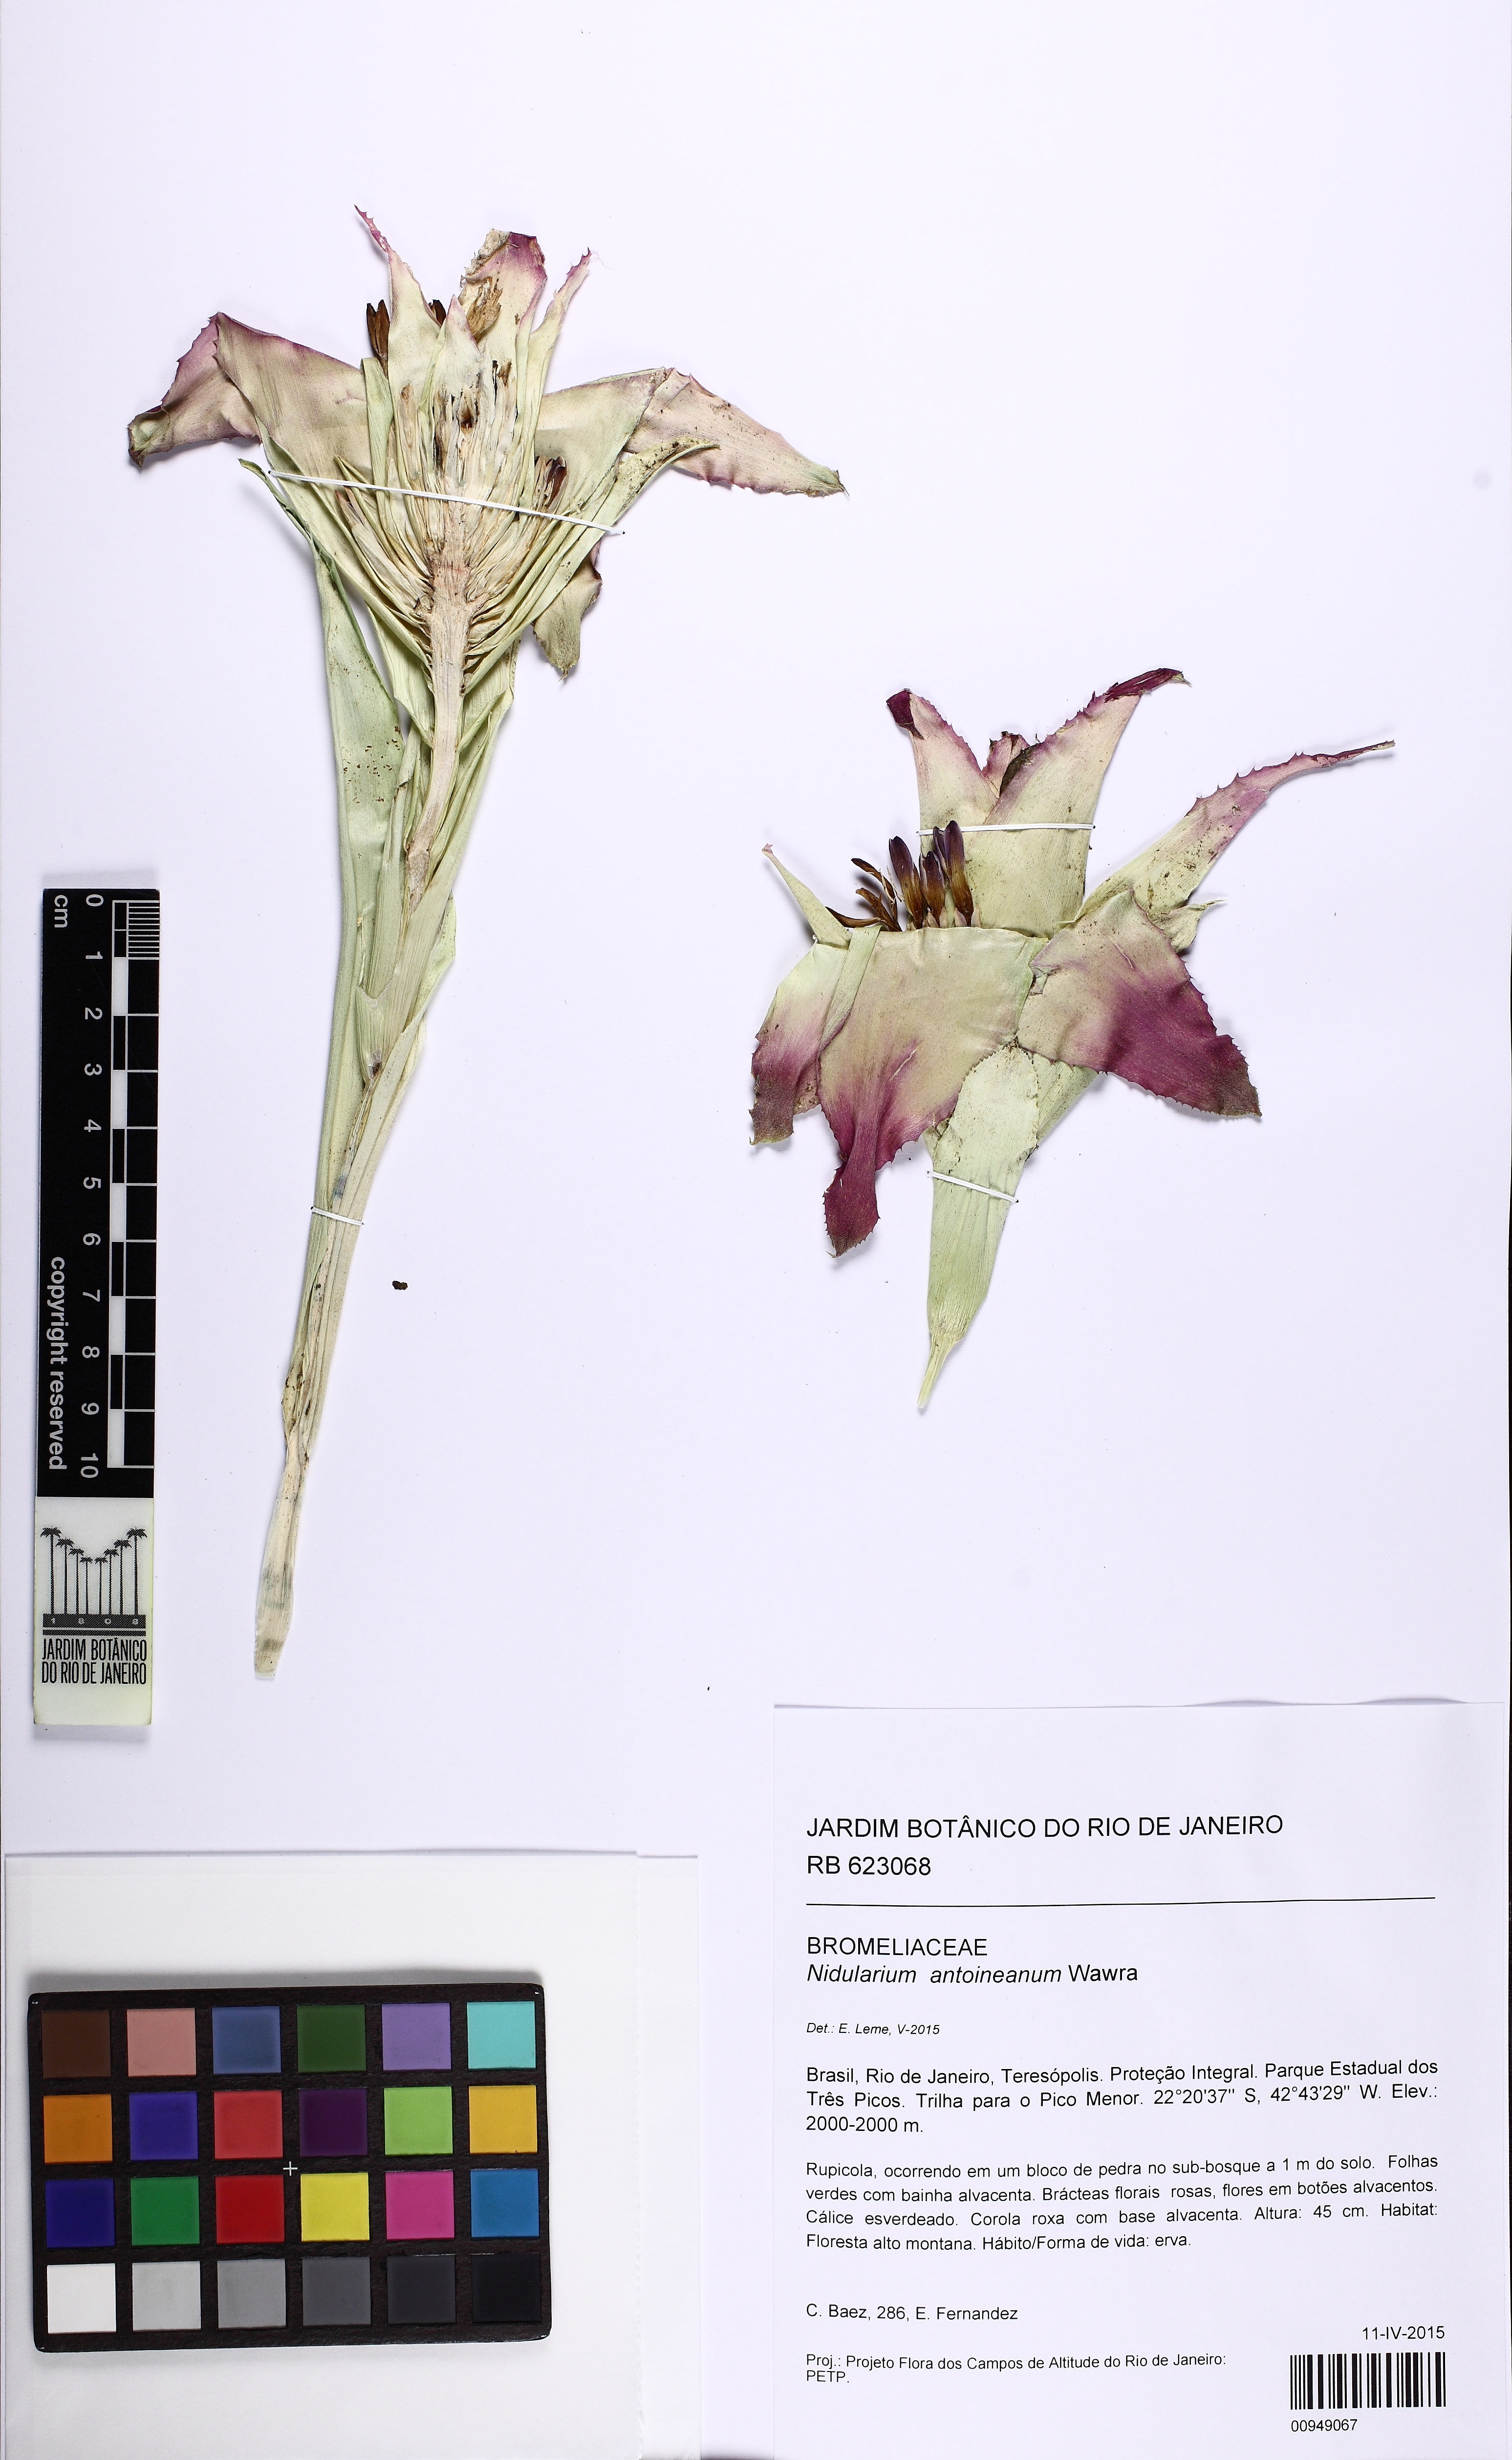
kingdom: Plantae
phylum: Tracheophyta
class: Liliopsida
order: Poales
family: Bromeliaceae
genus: Nidularium
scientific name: Nidularium antoineanum
